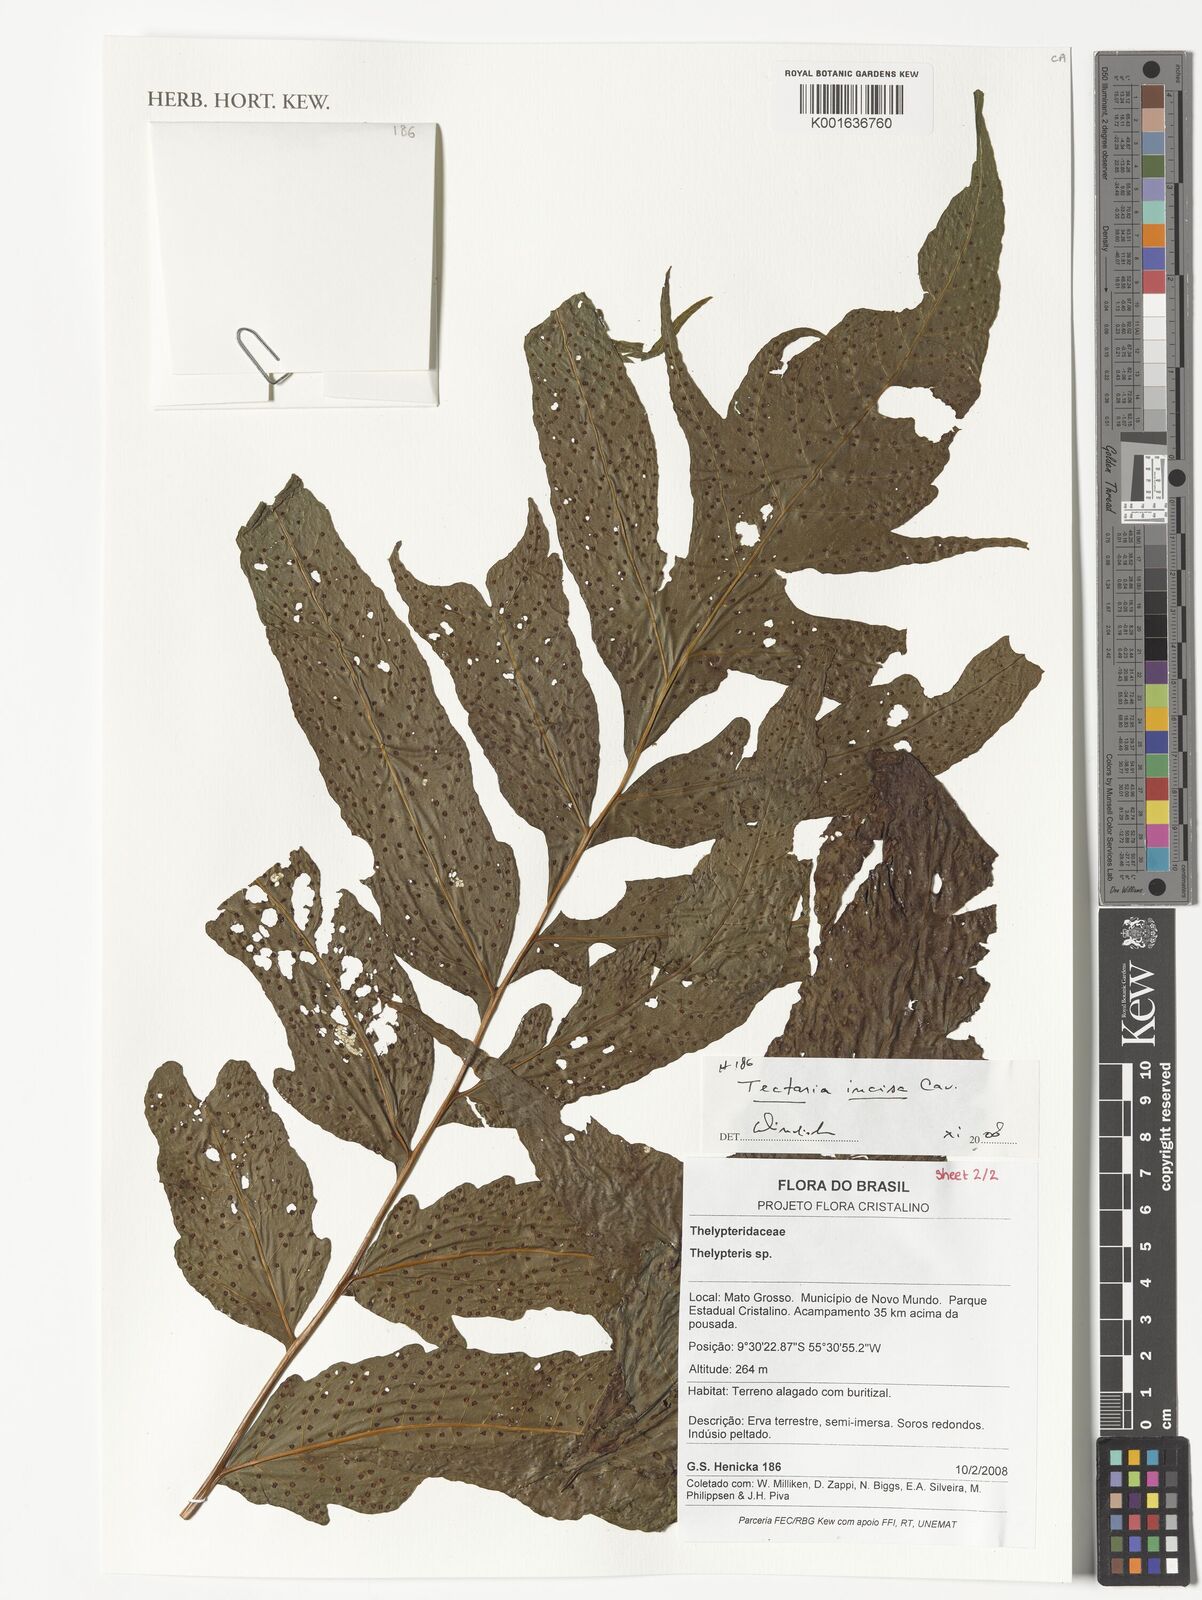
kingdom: Plantae
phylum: Tracheophyta
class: Polypodiopsida
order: Polypodiales
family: Tectariaceae
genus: Tectaria
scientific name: Tectaria incisa
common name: Incised halberd fern
